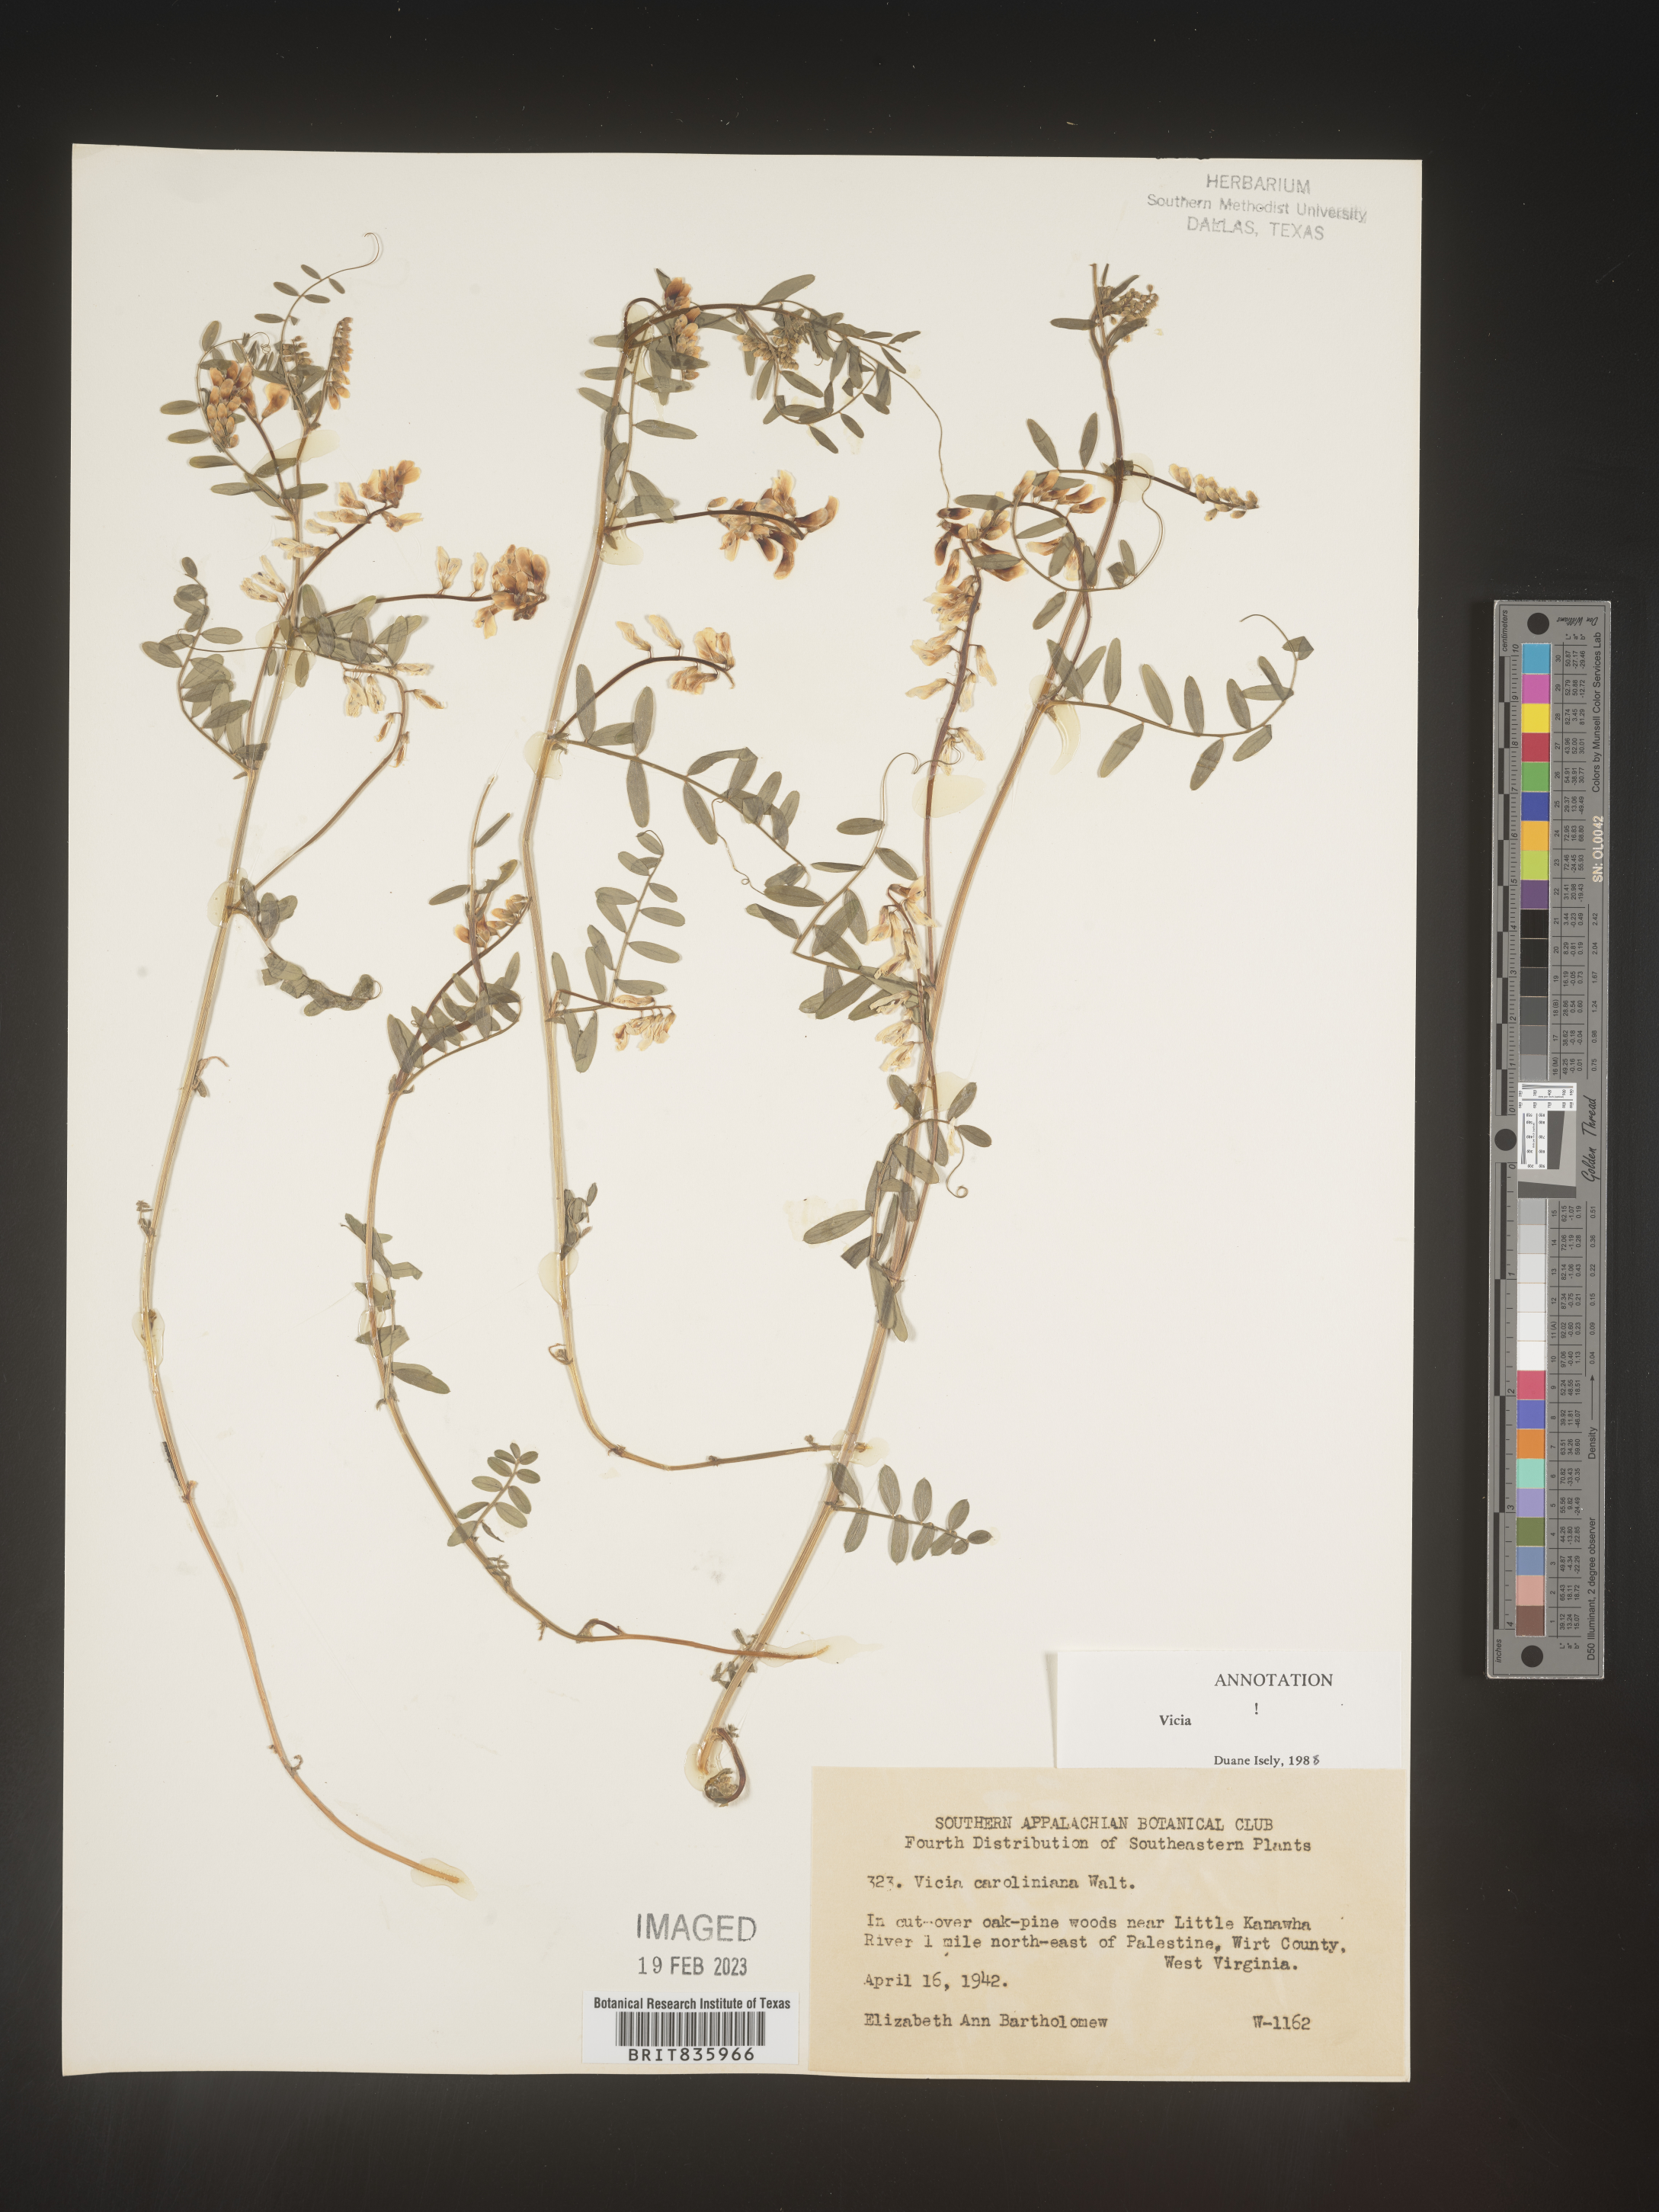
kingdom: Plantae
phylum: Tracheophyta
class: Magnoliopsida
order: Fabales
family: Fabaceae
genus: Vicia
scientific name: Vicia caroliniana
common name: Carolina vetch
